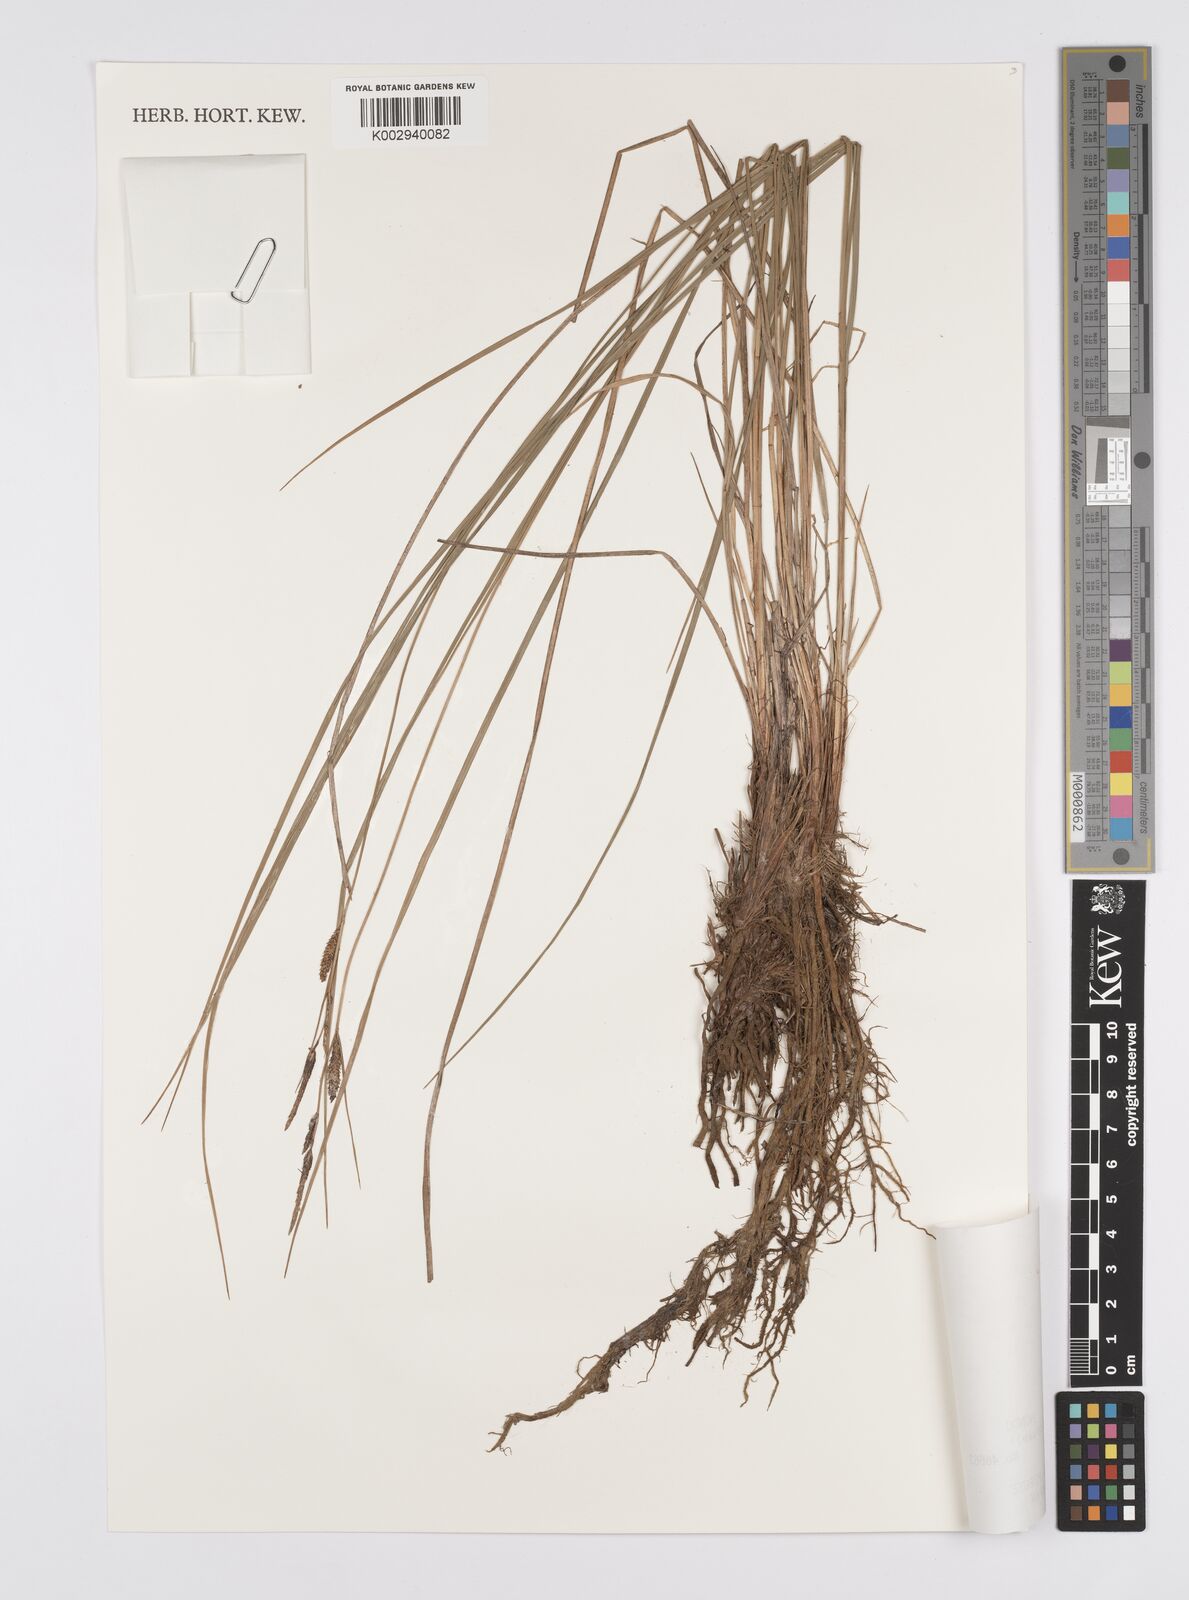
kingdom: Plantae
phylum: Tracheophyta
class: Liliopsida
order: Poales
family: Cyperaceae
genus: Carex
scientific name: Carex thunbergii
